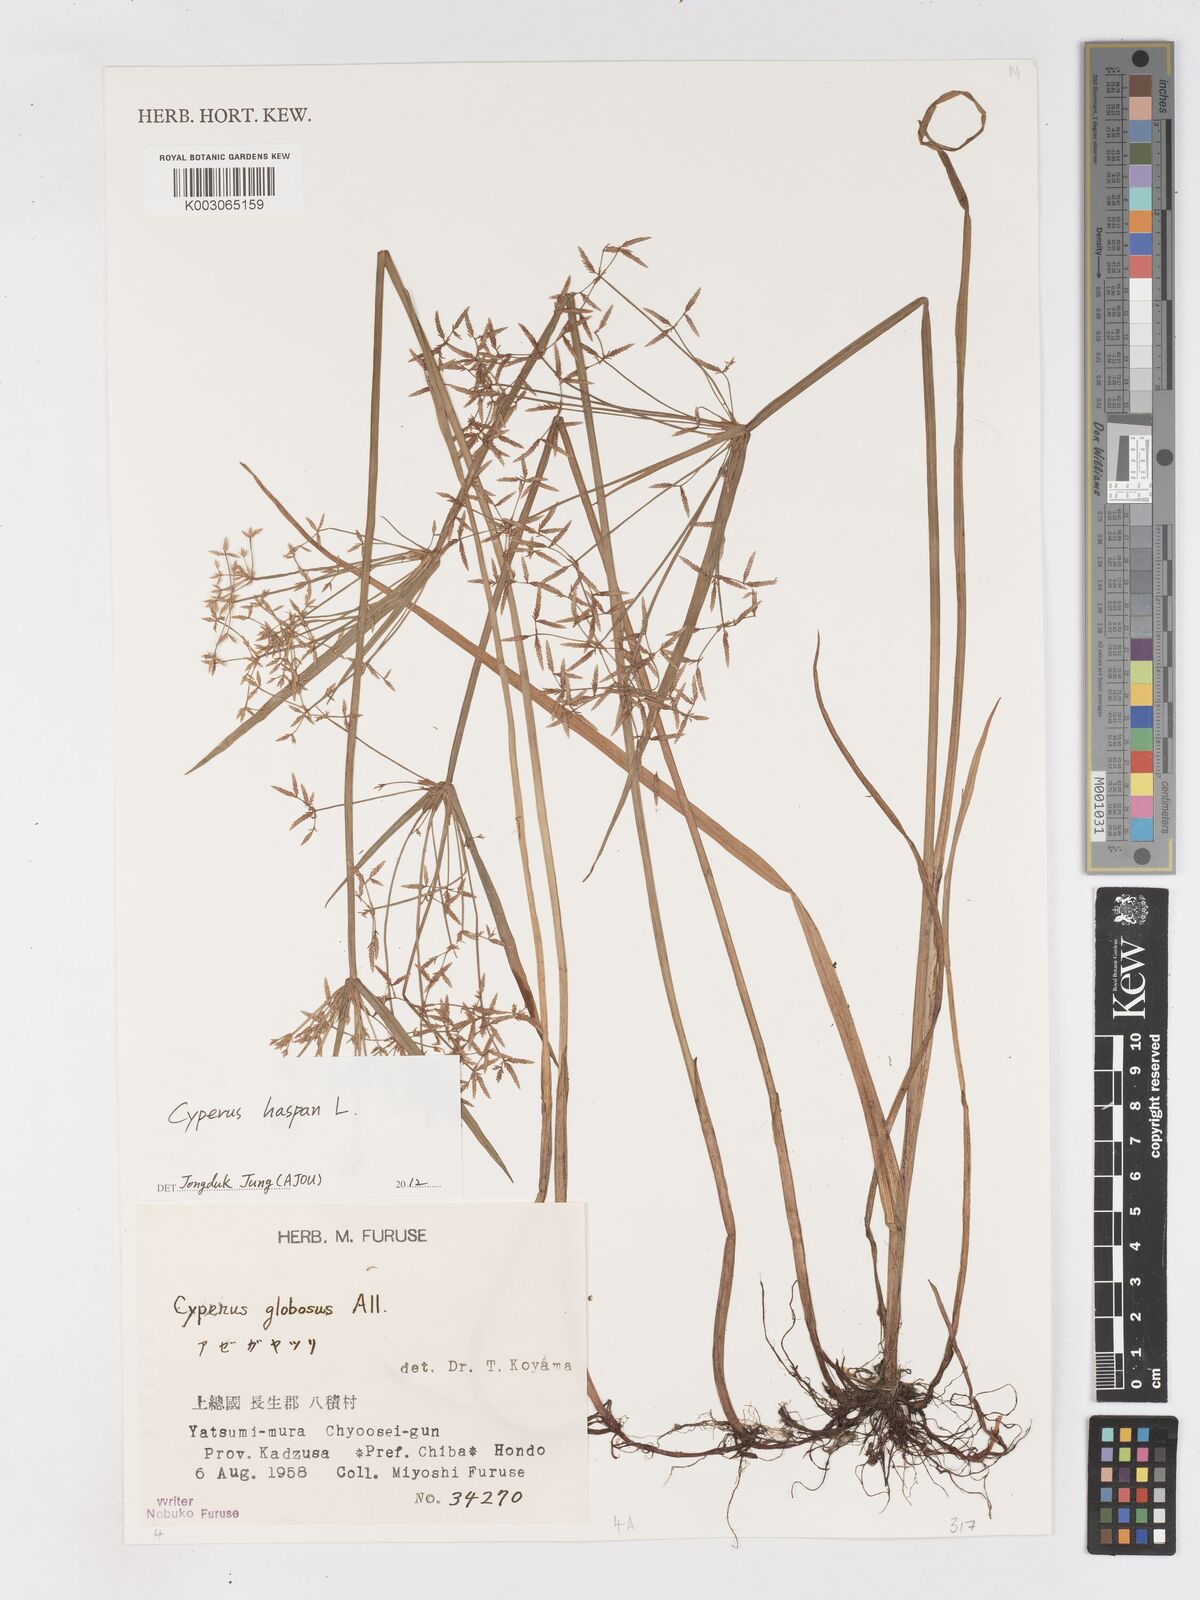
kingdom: Plantae
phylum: Tracheophyta
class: Liliopsida
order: Poales
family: Cyperaceae
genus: Cyperus
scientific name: Cyperus haspan
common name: Haspan flatsedge
